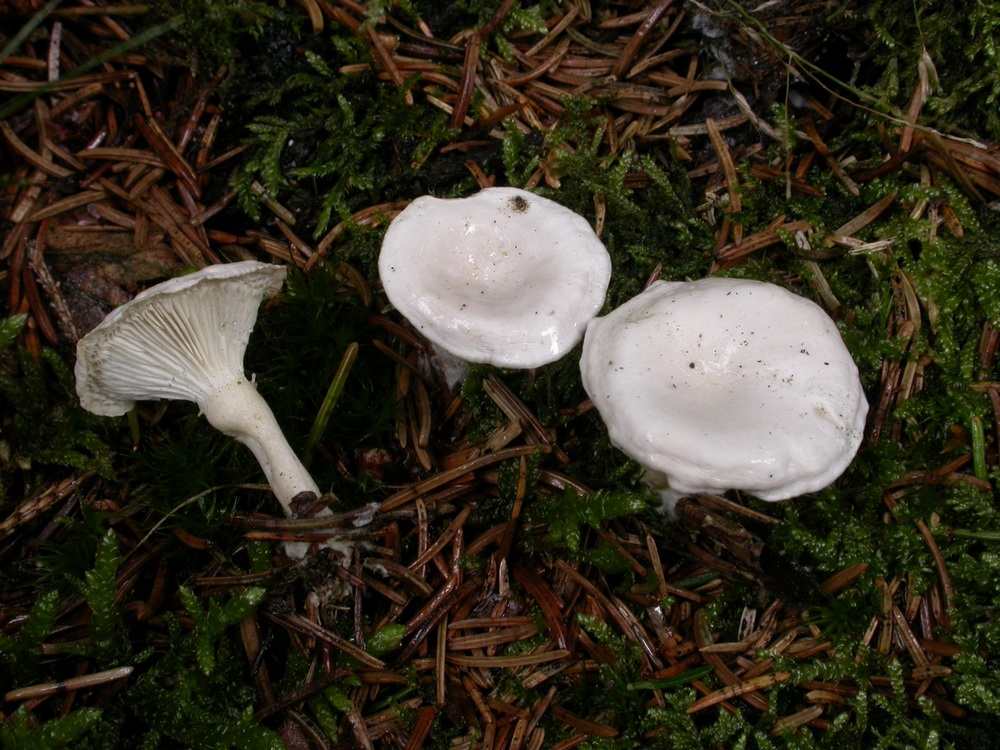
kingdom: Fungi
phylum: Basidiomycota
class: Agaricomycetes
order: Agaricales
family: Tricholomataceae
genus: Leucocybe
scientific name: Leucocybe candicans
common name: kridt-tragthat
